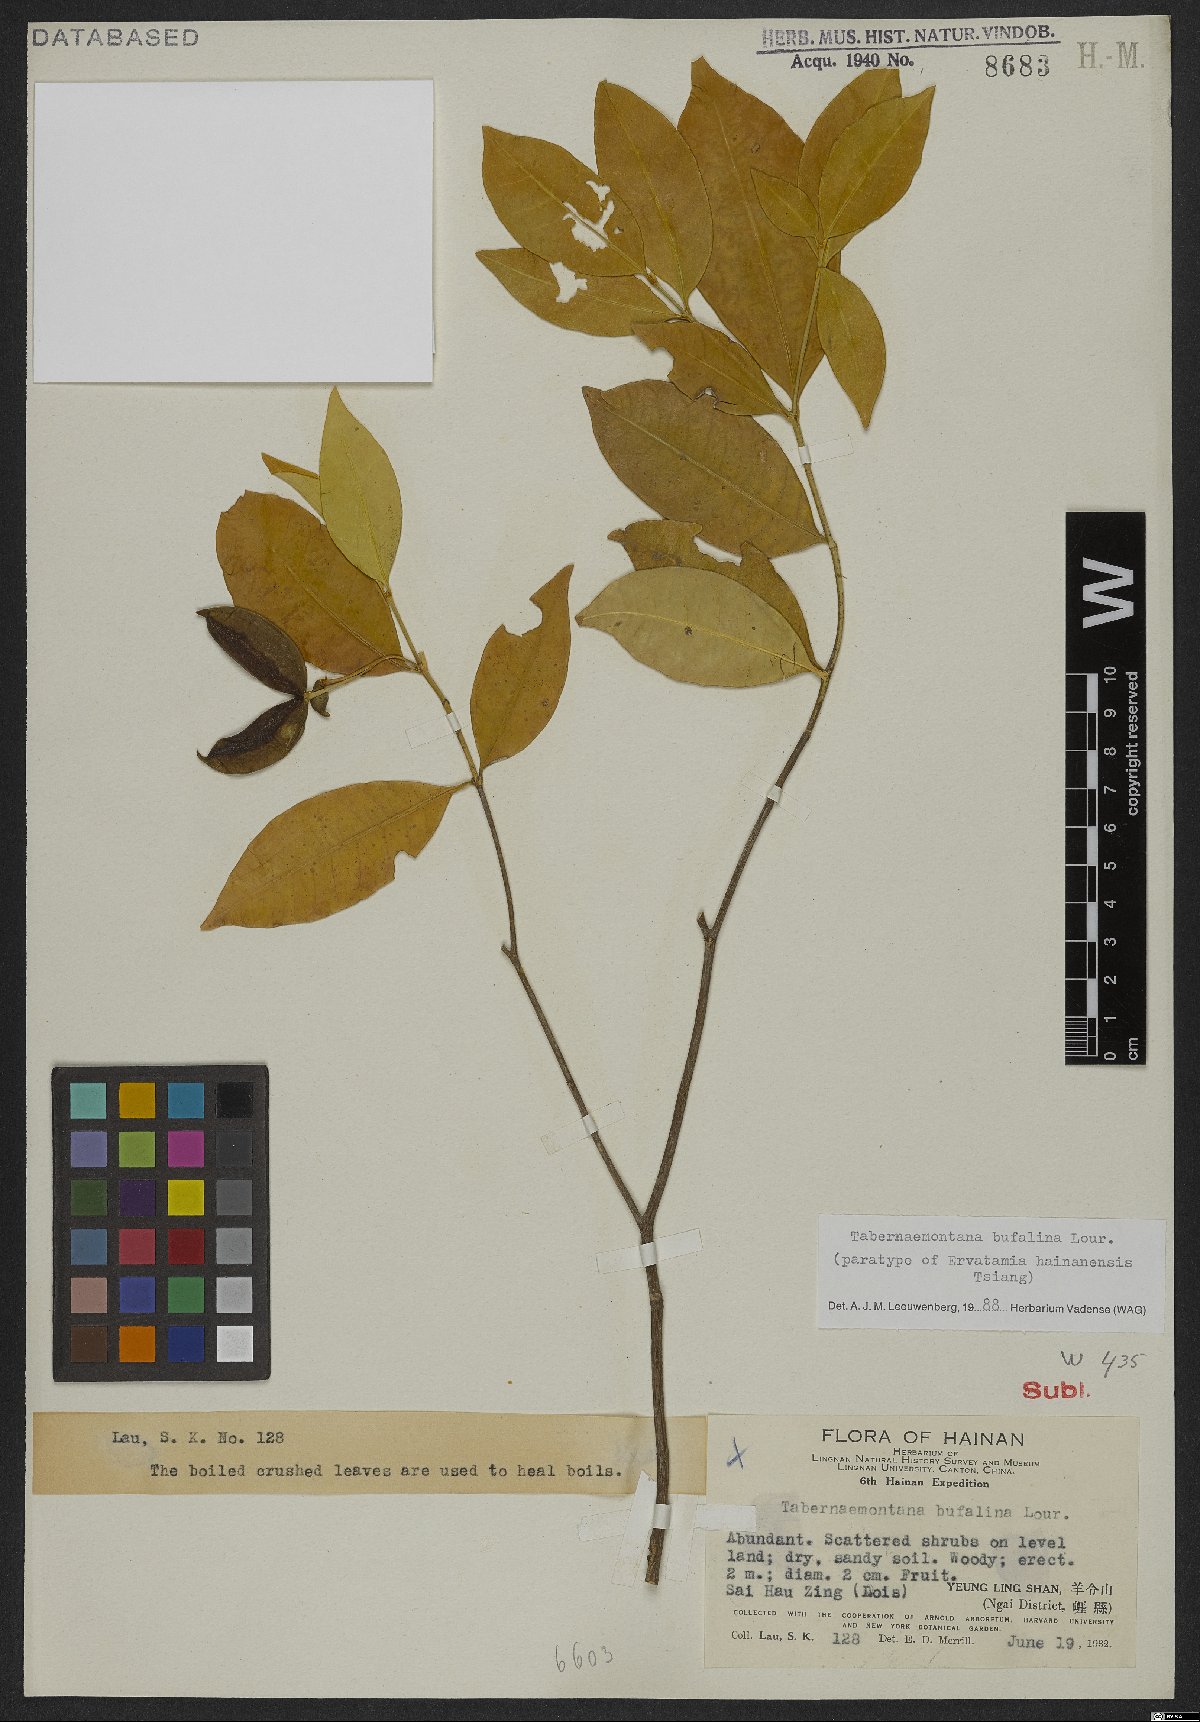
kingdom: Plantae
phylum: Tracheophyta
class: Magnoliopsida
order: Gentianales
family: Apocynaceae
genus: Tabernaemontana
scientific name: Tabernaemontana bufalina
